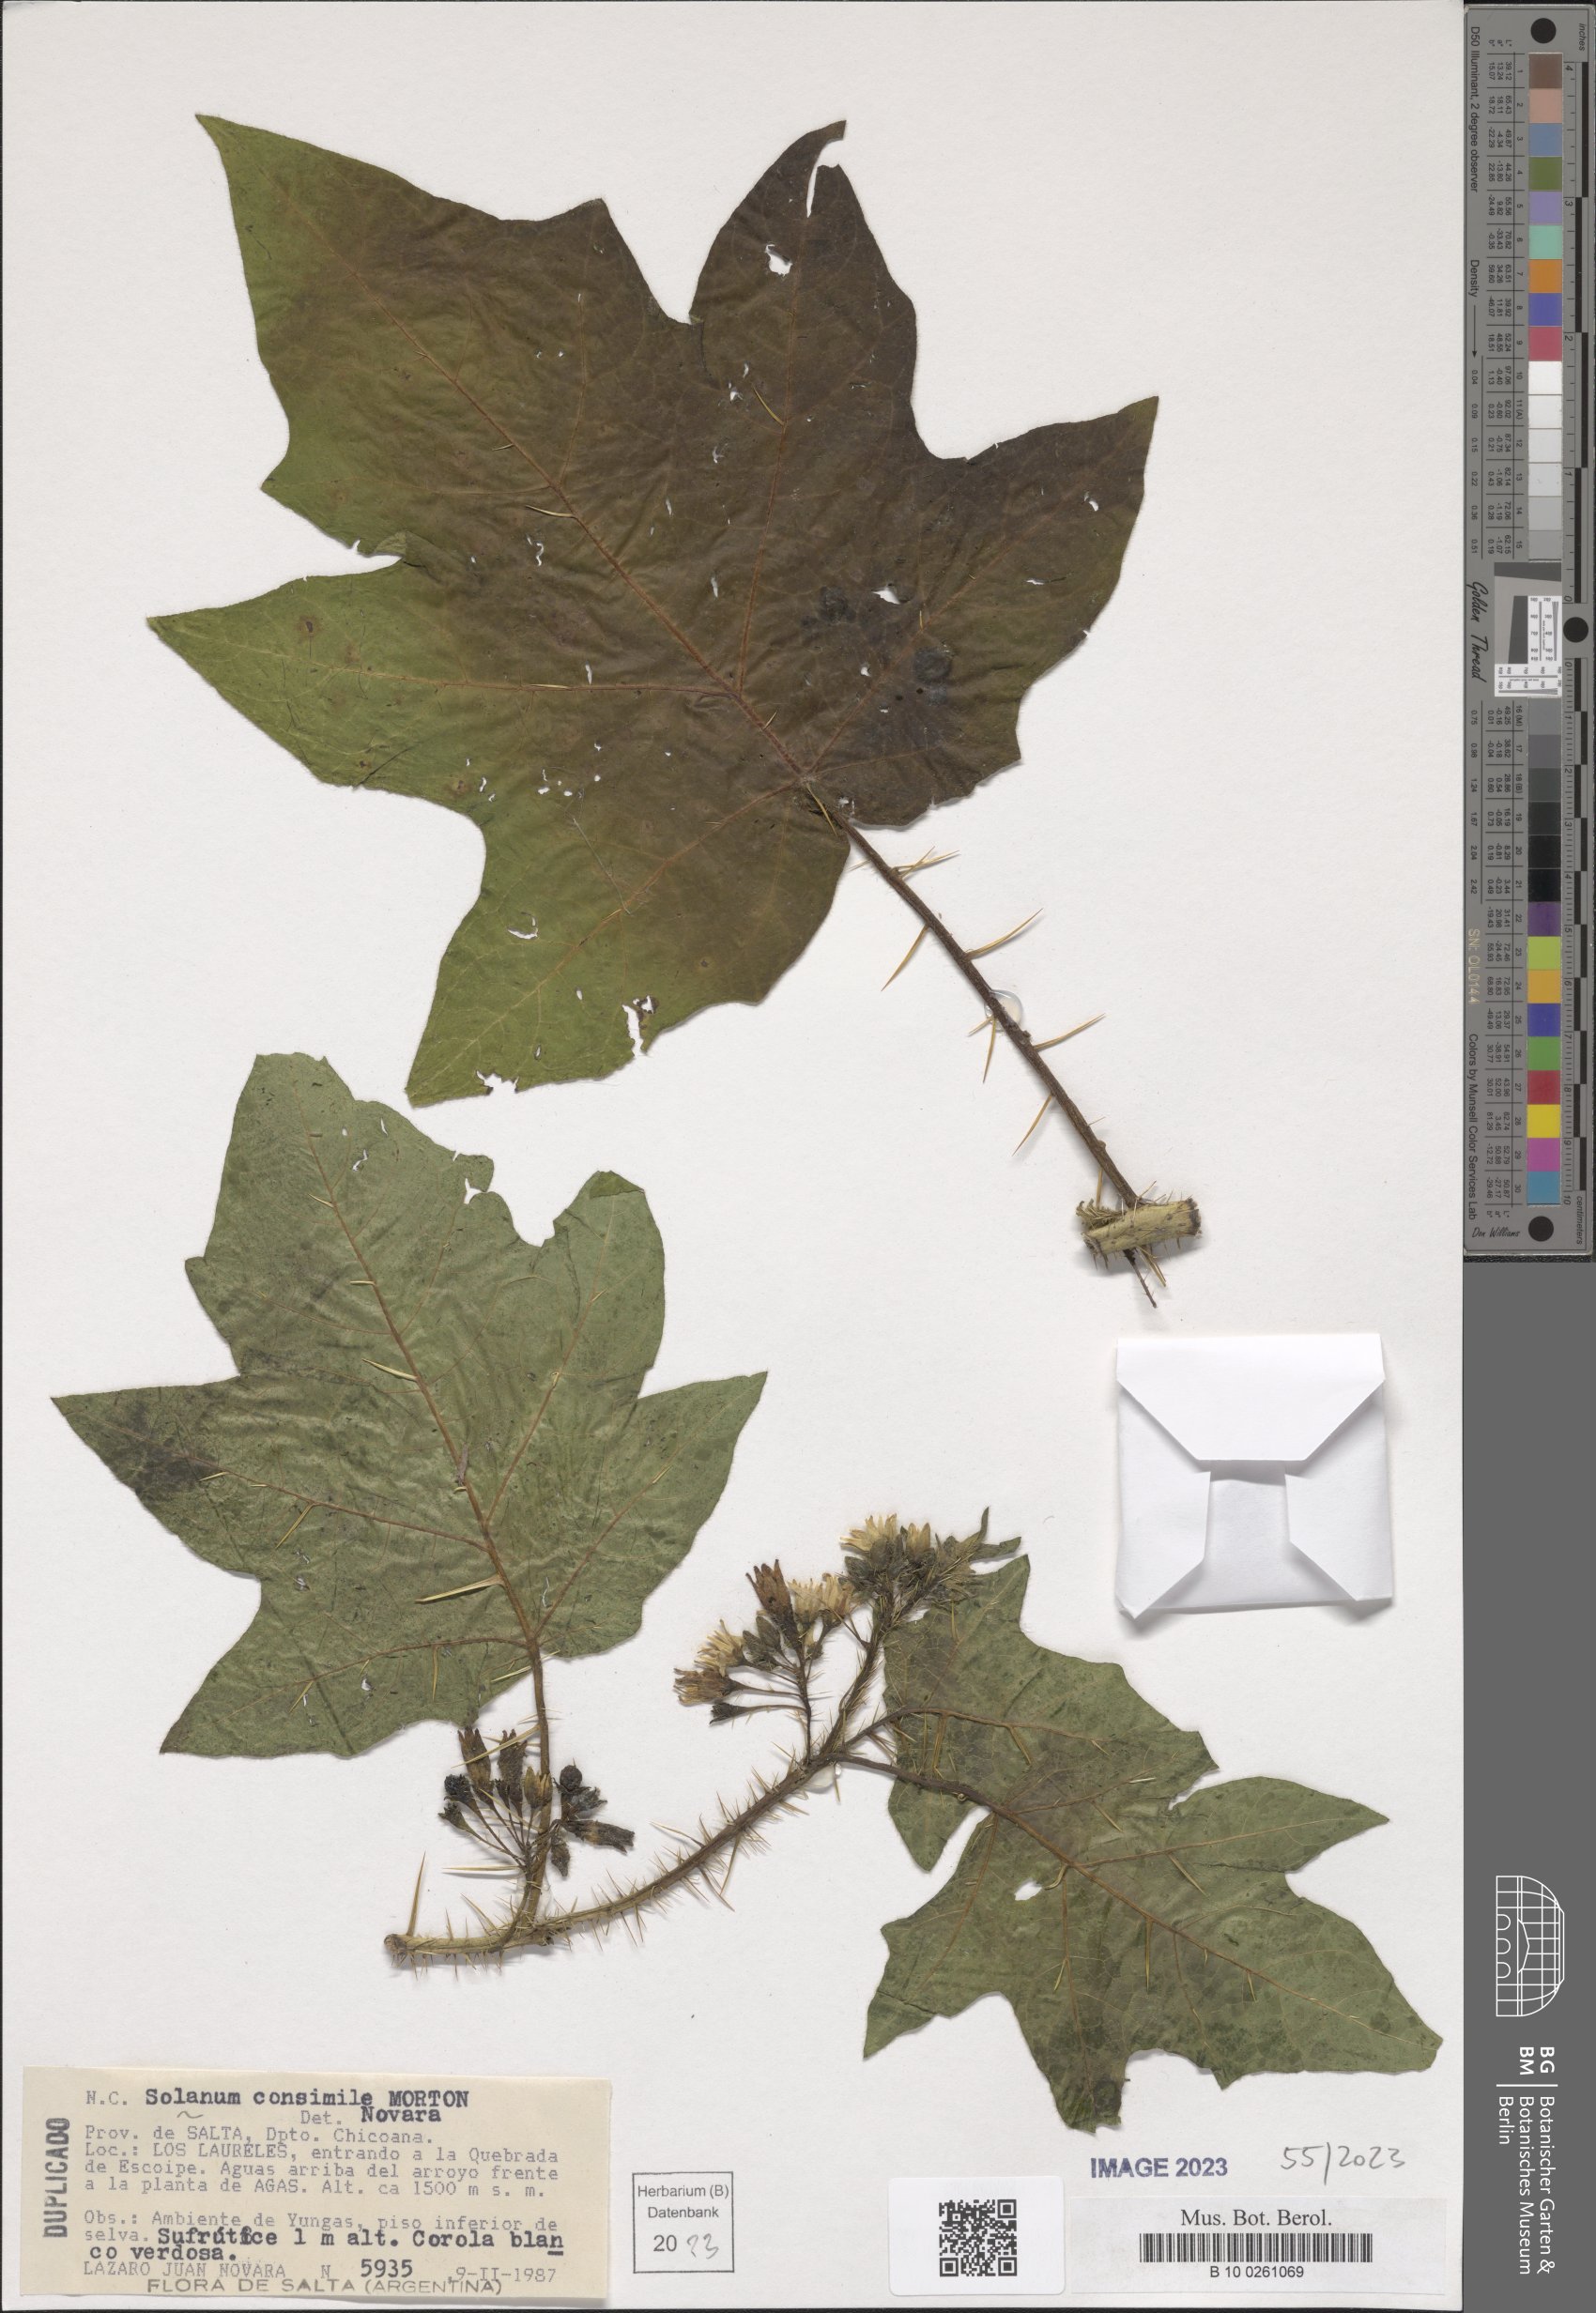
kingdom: Plantae
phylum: Tracheophyta
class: Magnoliopsida
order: Solanales
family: Solanaceae
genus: Solanum
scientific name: Solanum consimile
